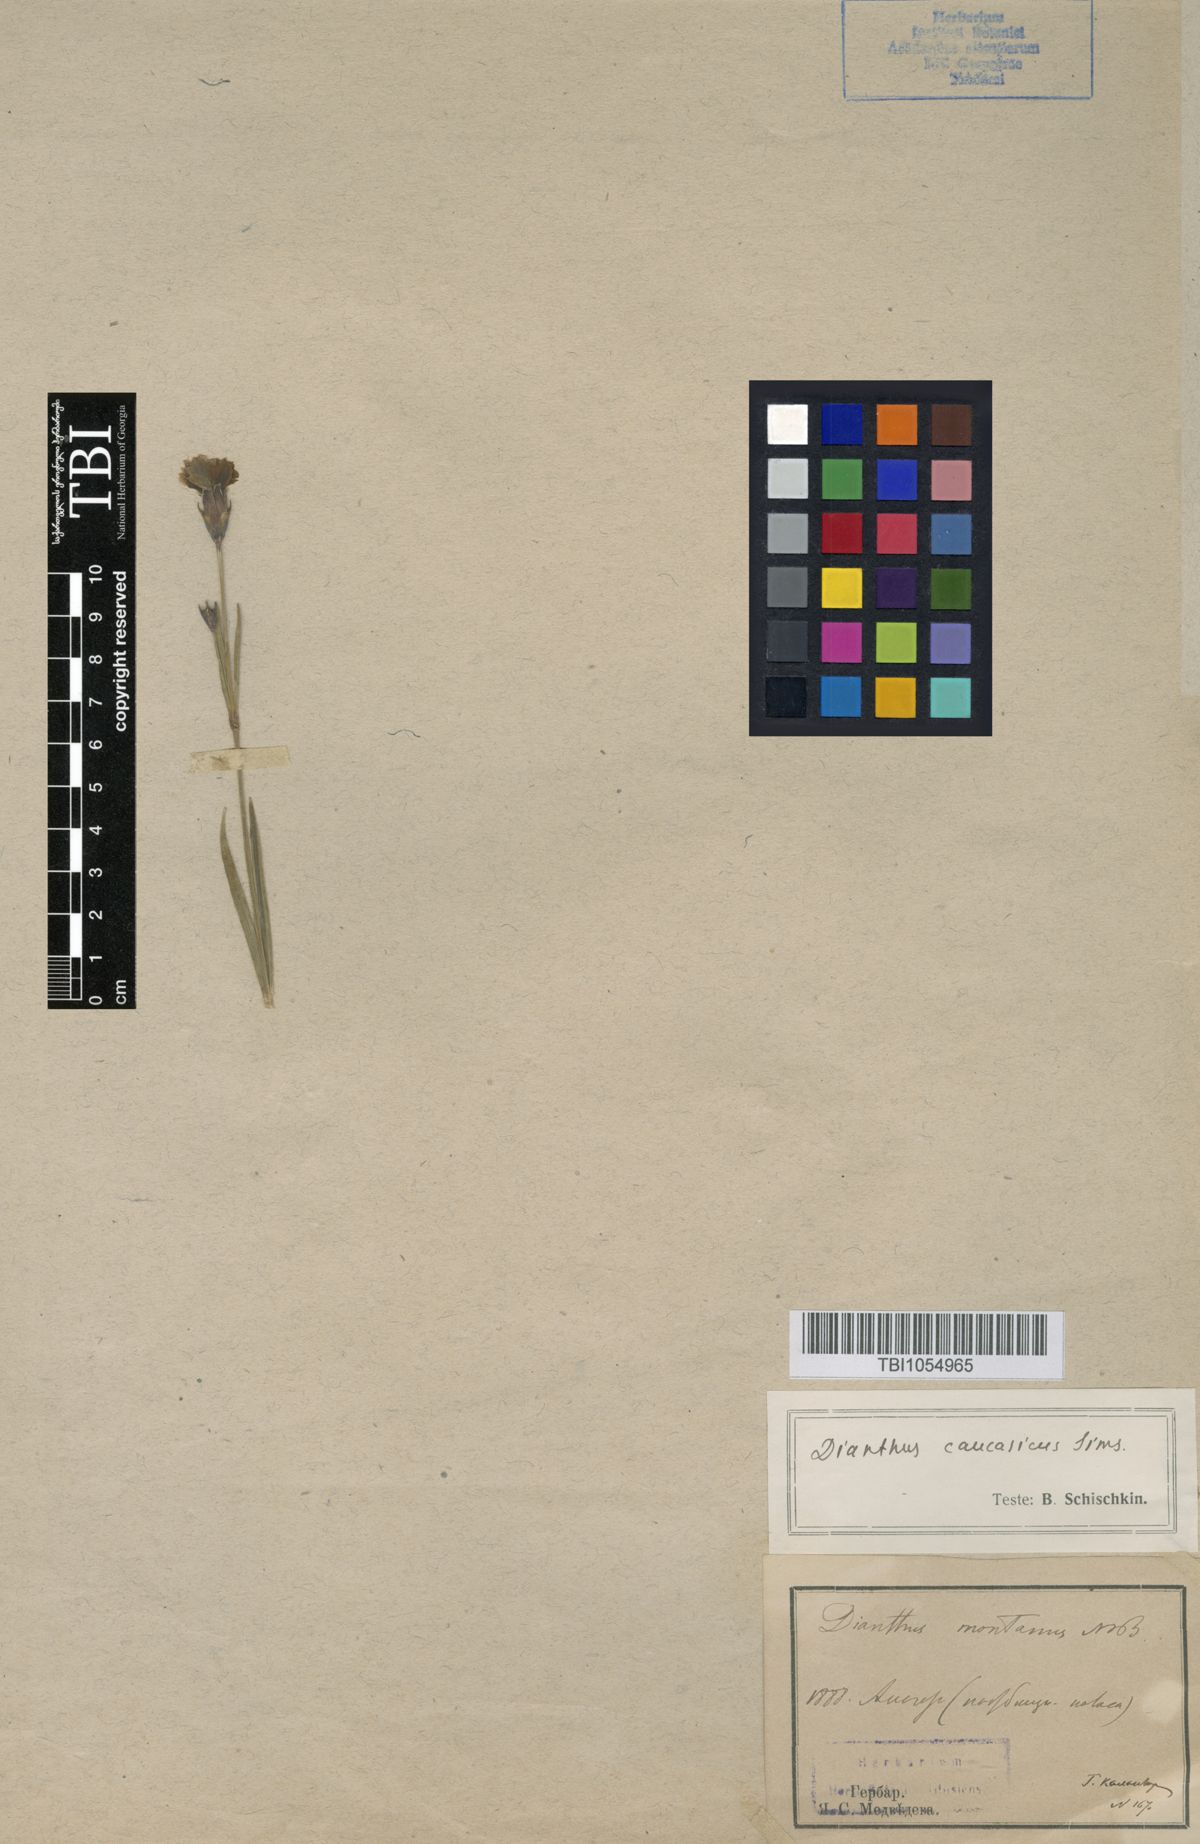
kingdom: Plantae
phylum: Tracheophyta
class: Magnoliopsida
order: Caryophyllales
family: Caryophyllaceae
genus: Dianthus
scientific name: Dianthus caucaseus
